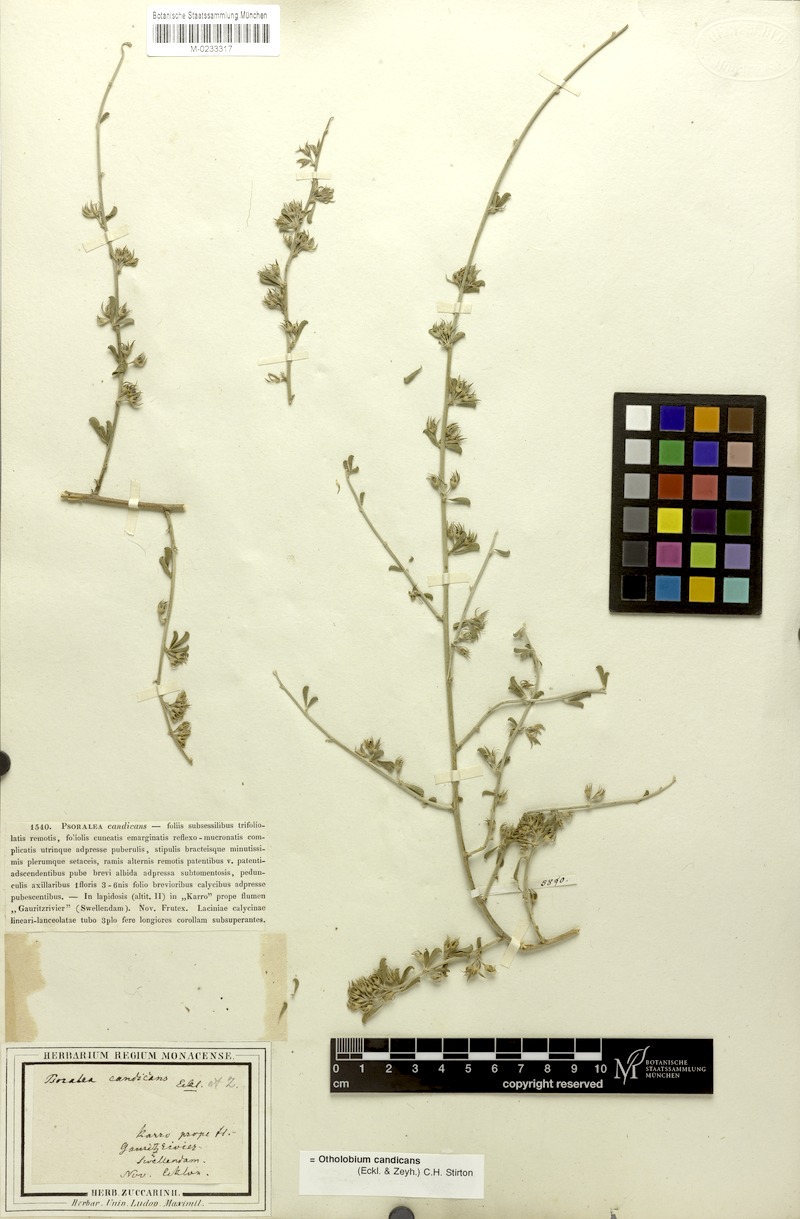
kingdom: Plantae
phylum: Tracheophyta
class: Magnoliopsida
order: Fabales
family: Fabaceae
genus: Psoralea
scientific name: Psoralea candicans
